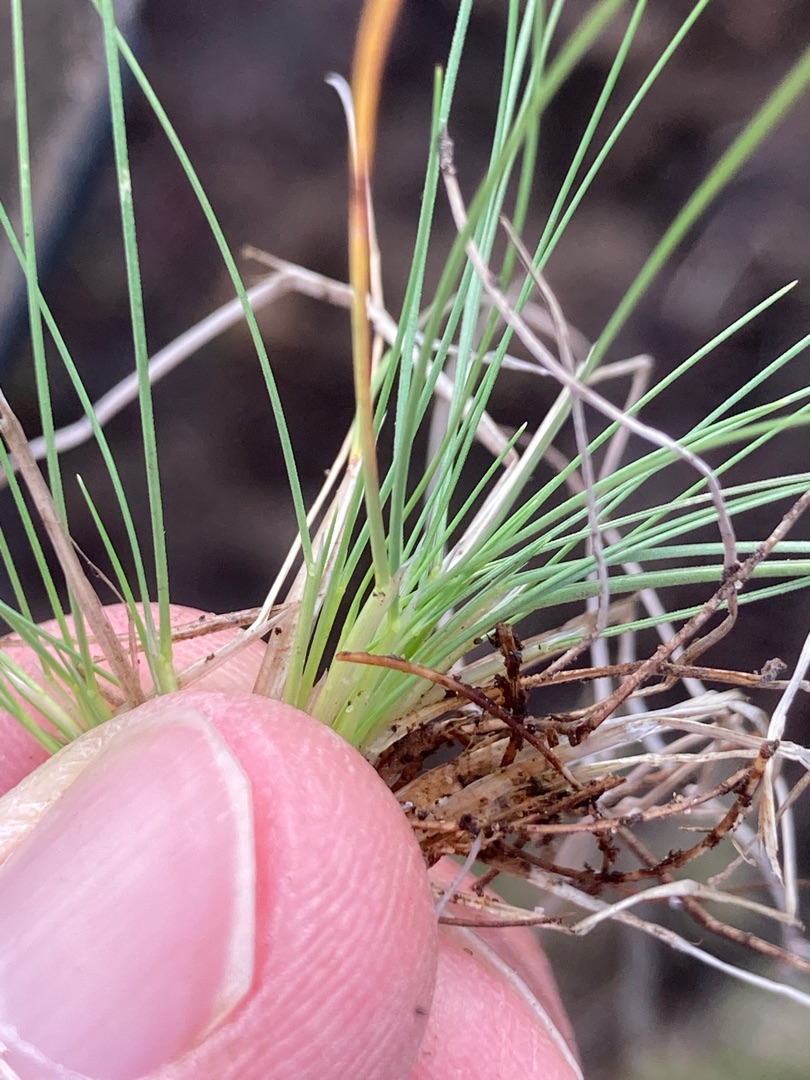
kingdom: Plantae
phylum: Tracheophyta
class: Liliopsida
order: Poales
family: Poaceae
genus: Deschampsia
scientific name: Deschampsia setacea
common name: Fin bunke
